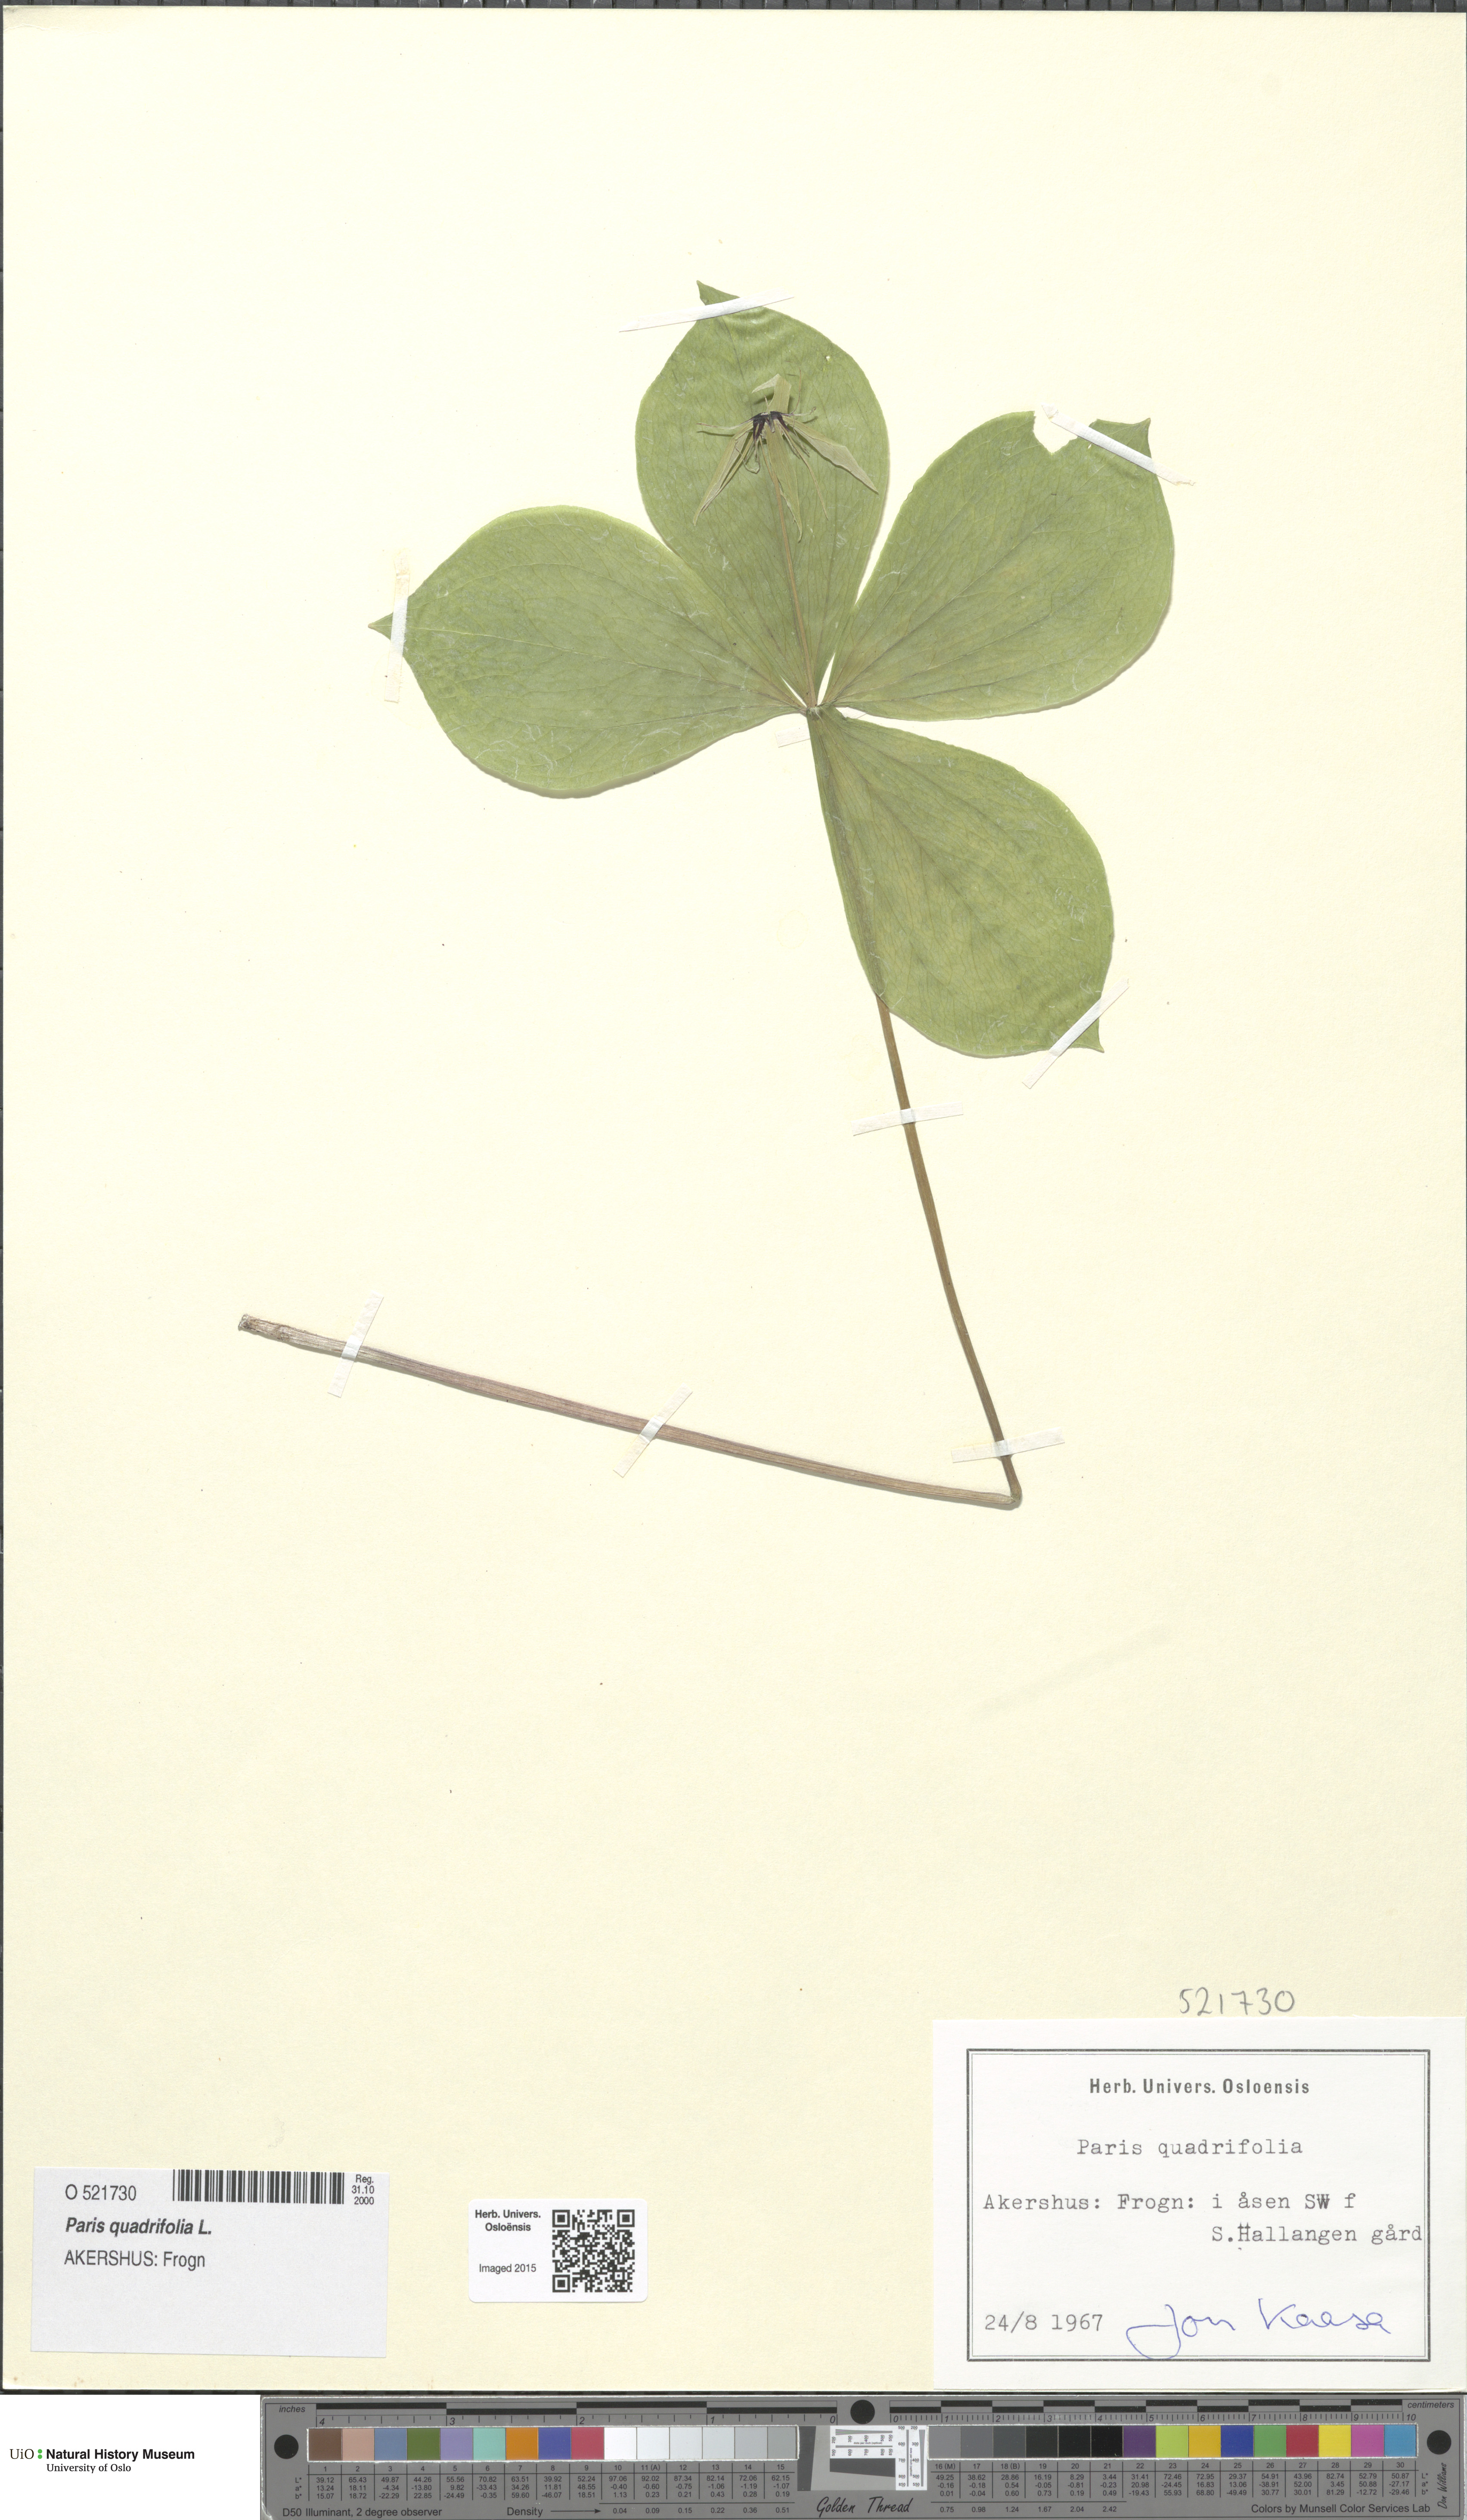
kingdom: Plantae
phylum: Tracheophyta
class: Liliopsida
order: Liliales
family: Melanthiaceae
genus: Paris
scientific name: Paris quadrifolia
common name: Herb-paris
